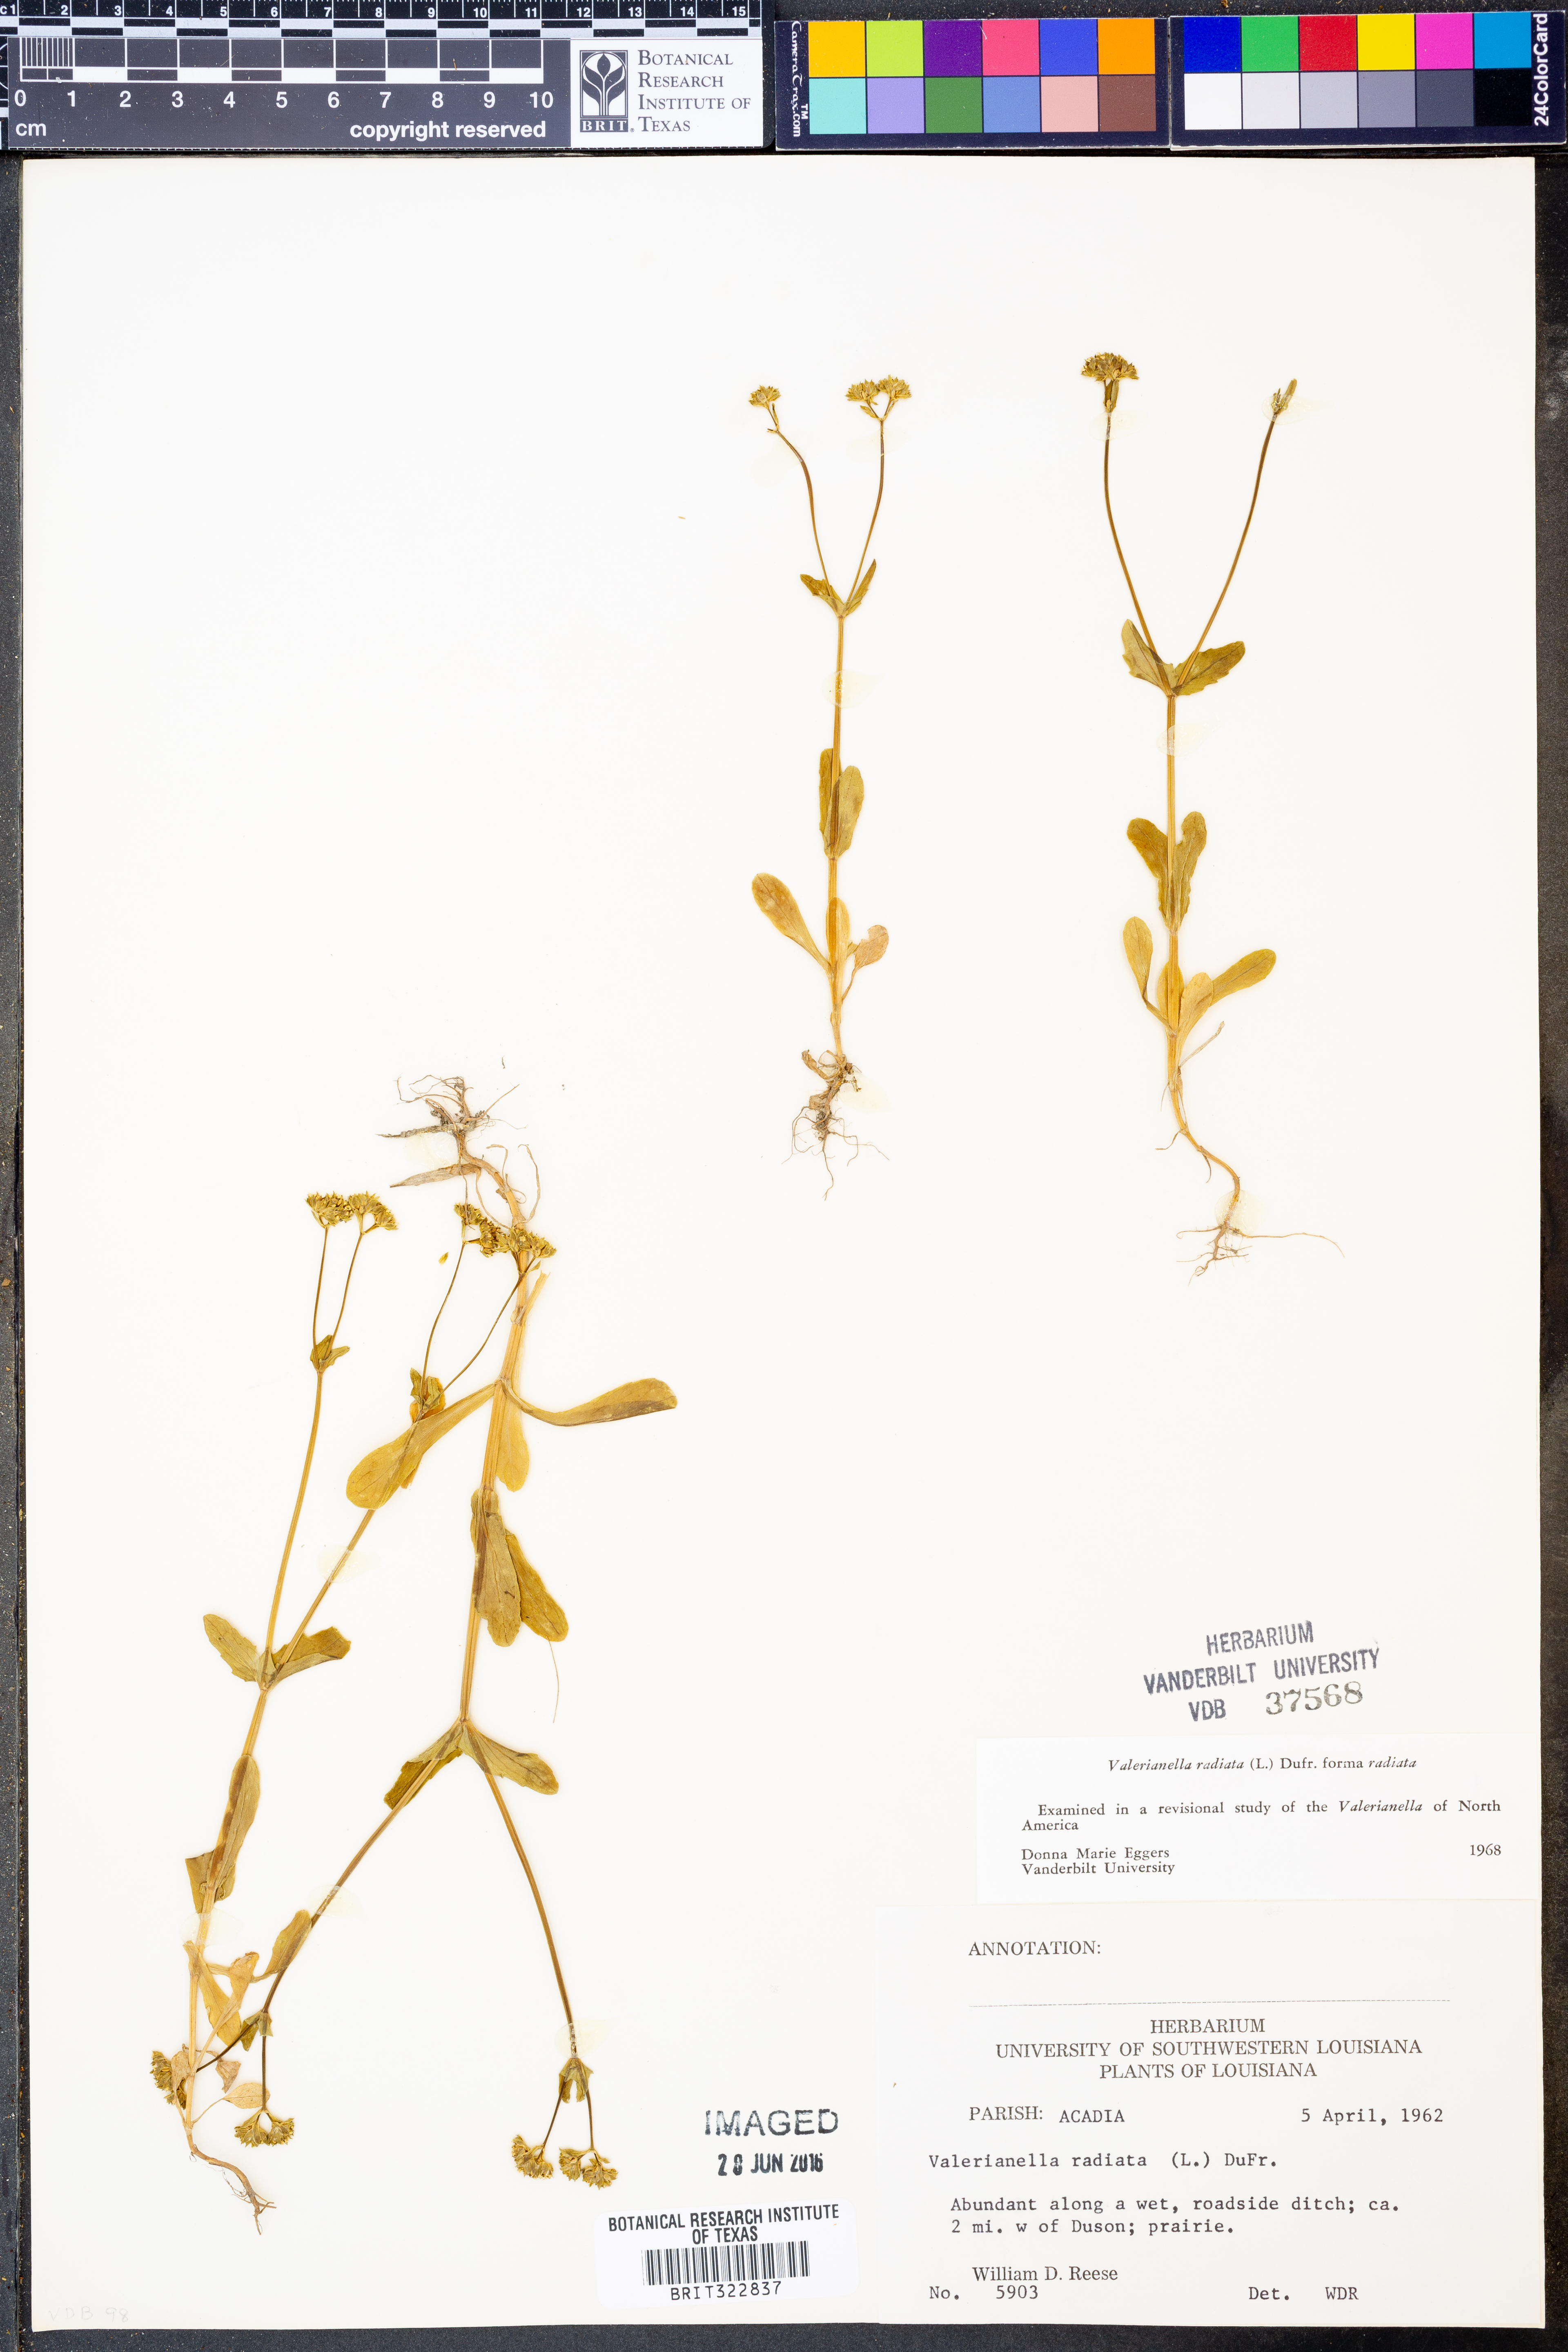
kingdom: Plantae
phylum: Tracheophyta
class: Magnoliopsida
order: Dipsacales
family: Caprifoliaceae
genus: Valerianella
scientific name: Valerianella radiata
